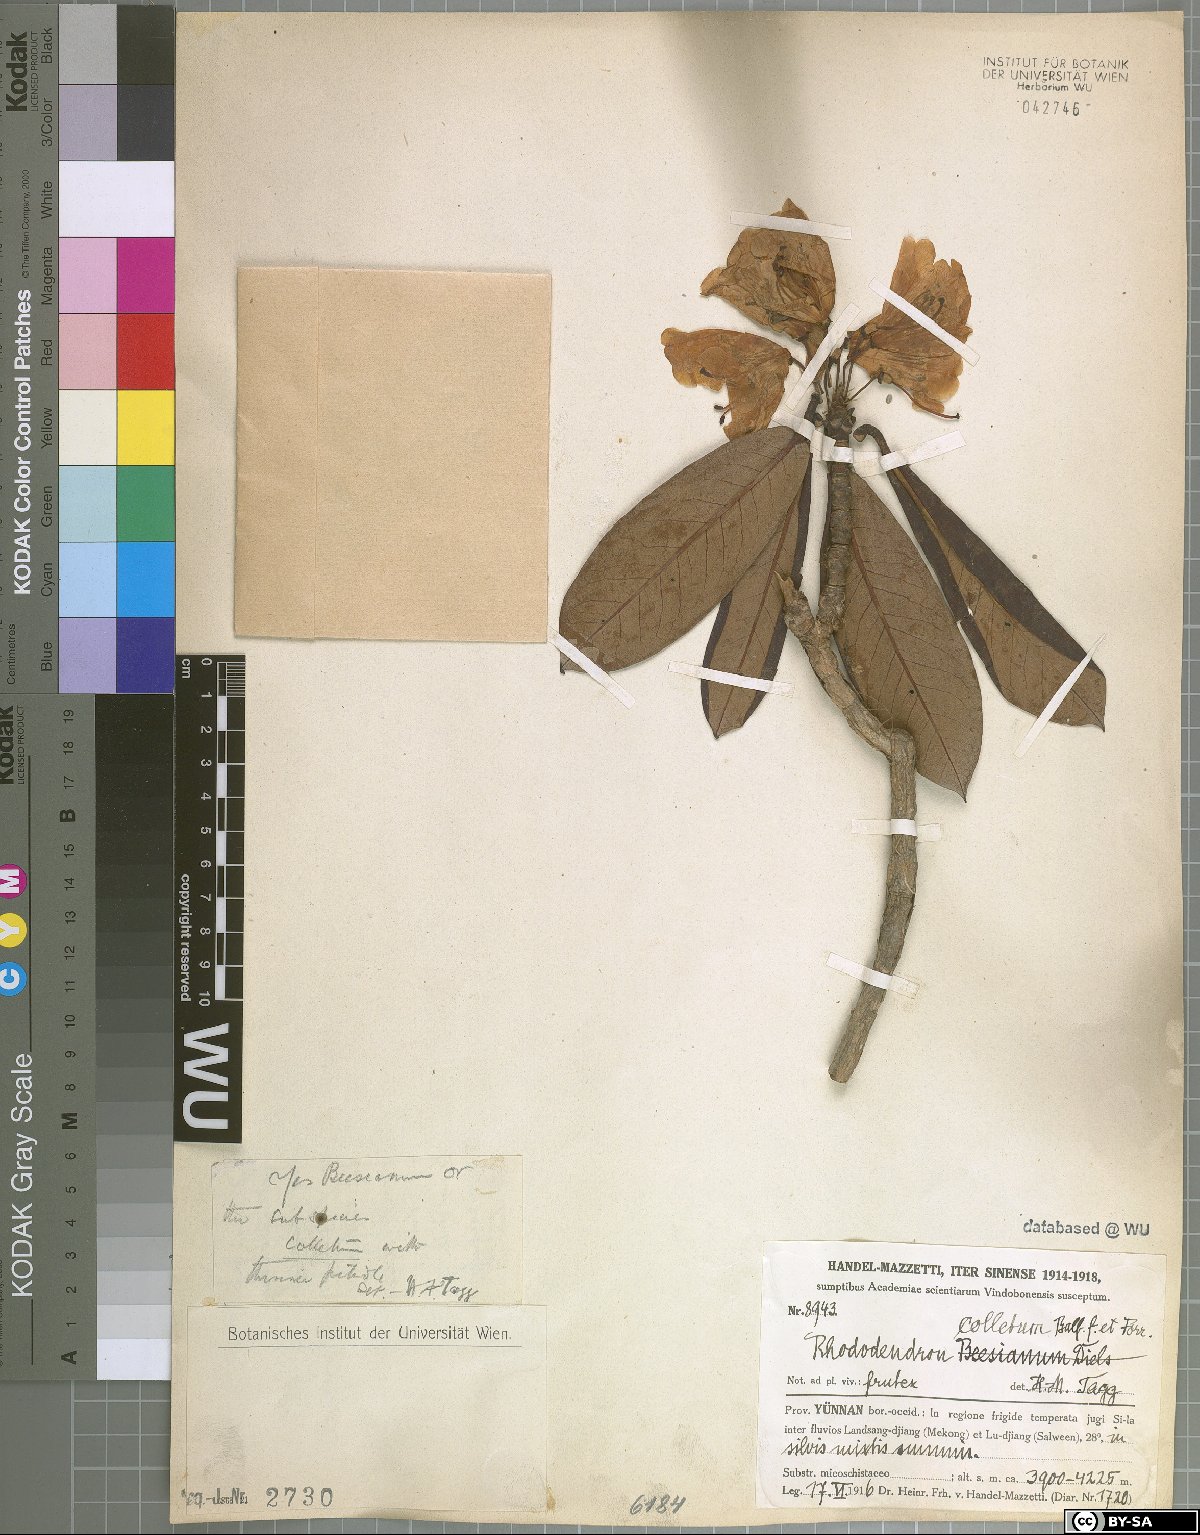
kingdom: Plantae
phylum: Tracheophyta
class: Magnoliopsida
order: Ericales
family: Ericaceae
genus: Rhododendron
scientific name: Rhododendron beesianum
